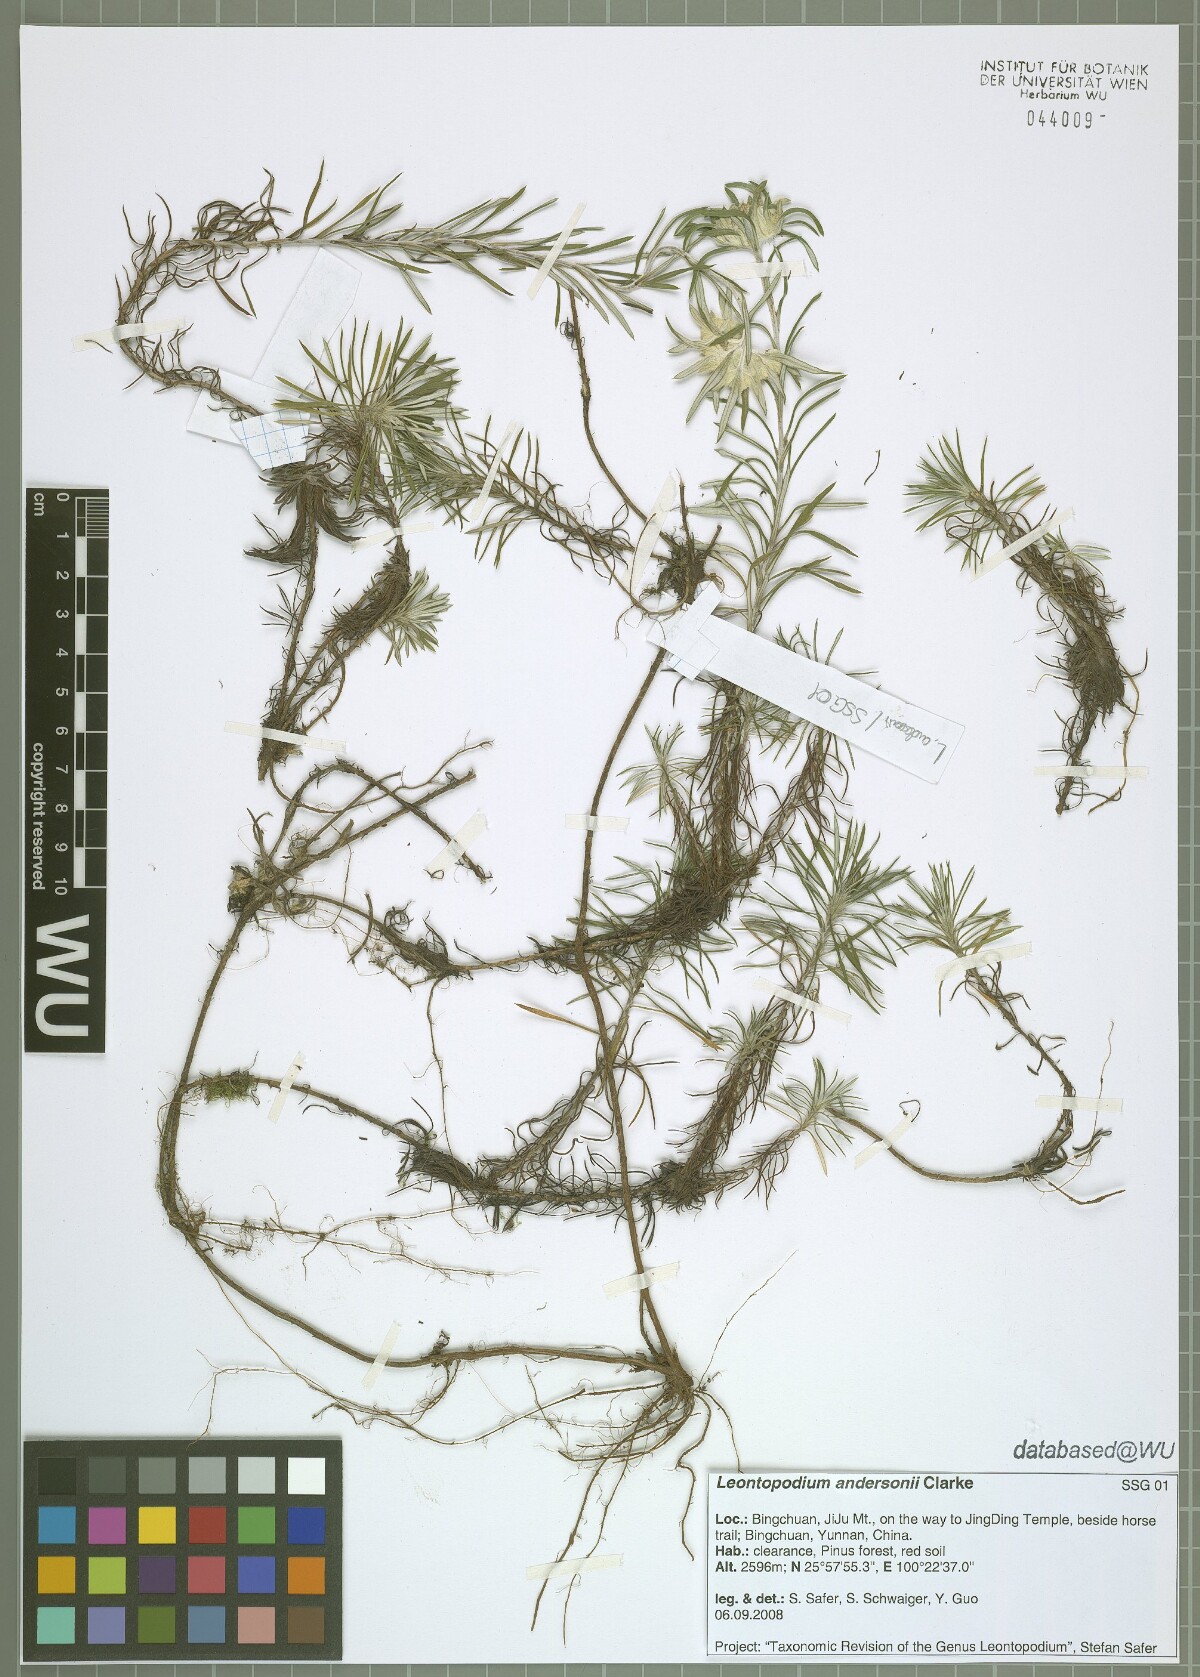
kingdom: Plantae
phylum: Tracheophyta
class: Magnoliopsida
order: Asterales
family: Asteraceae
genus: Leontopodium
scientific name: Leontopodium andersonii
